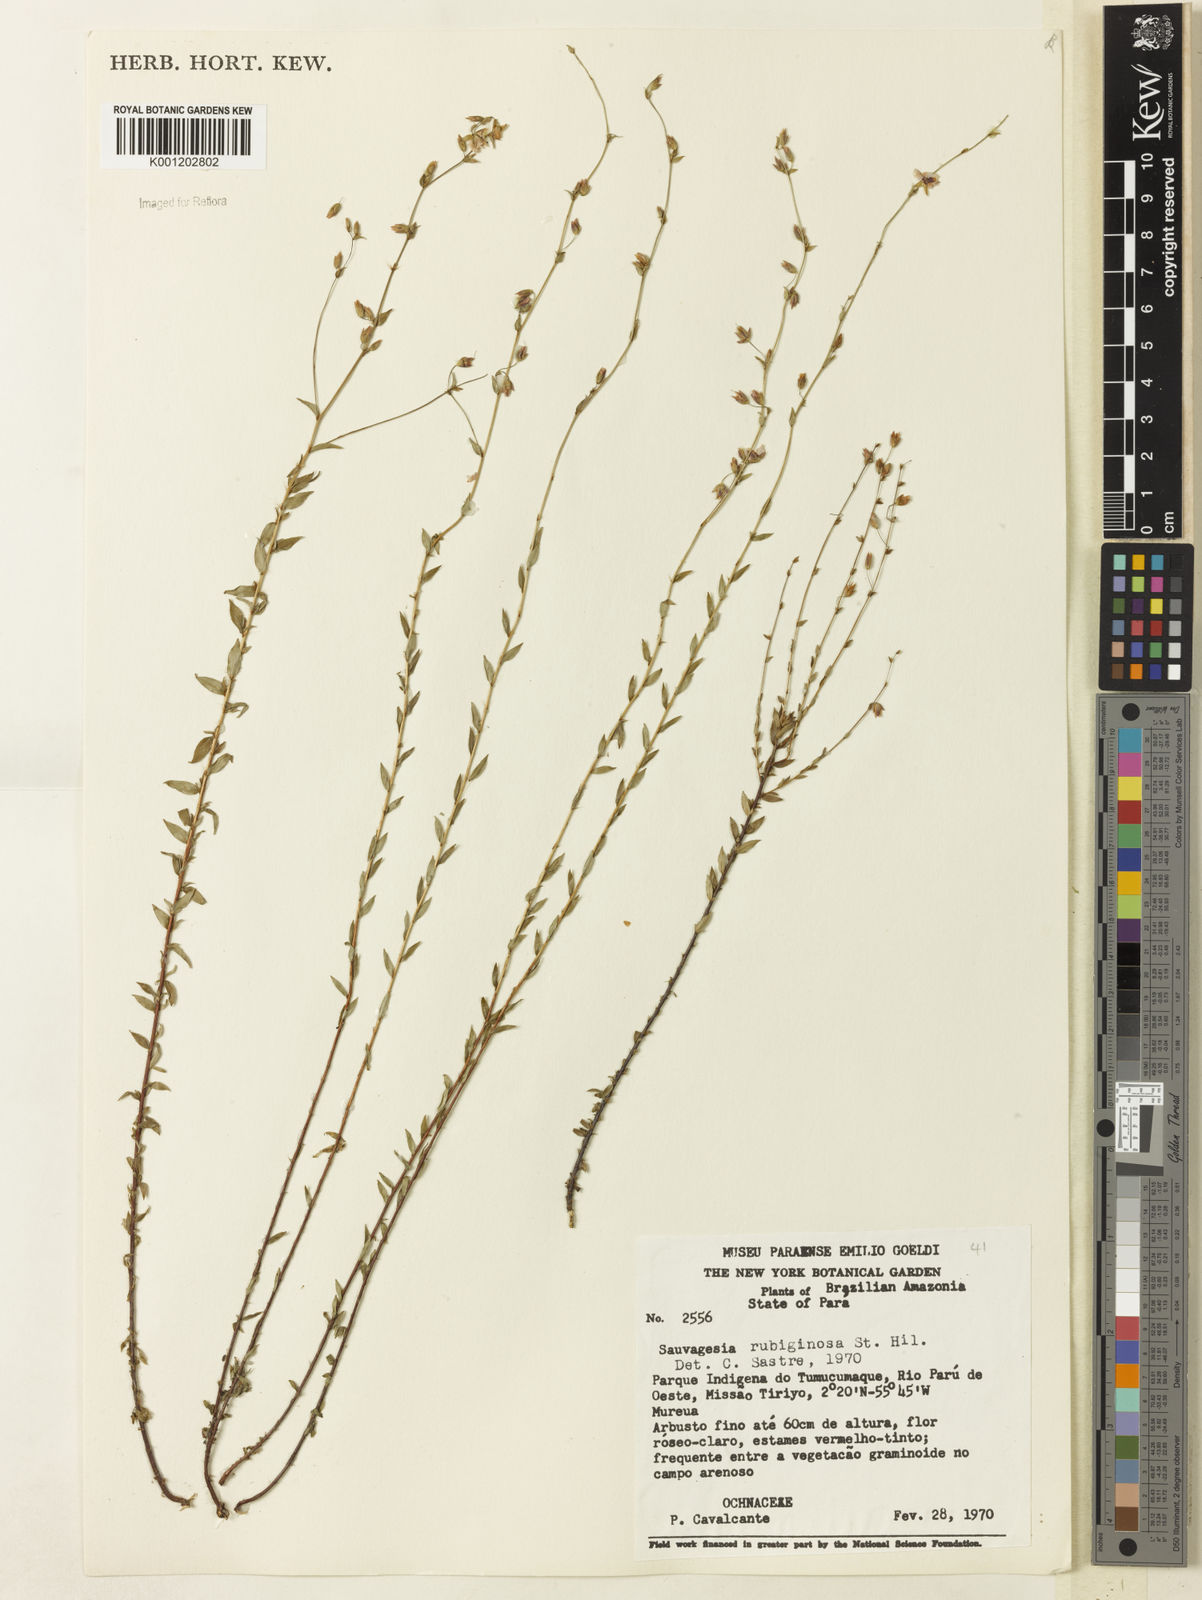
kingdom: Plantae
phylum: Tracheophyta
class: Magnoliopsida
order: Malpighiales
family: Ochnaceae
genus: Sauvagesia
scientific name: Sauvagesia rubiginosa
